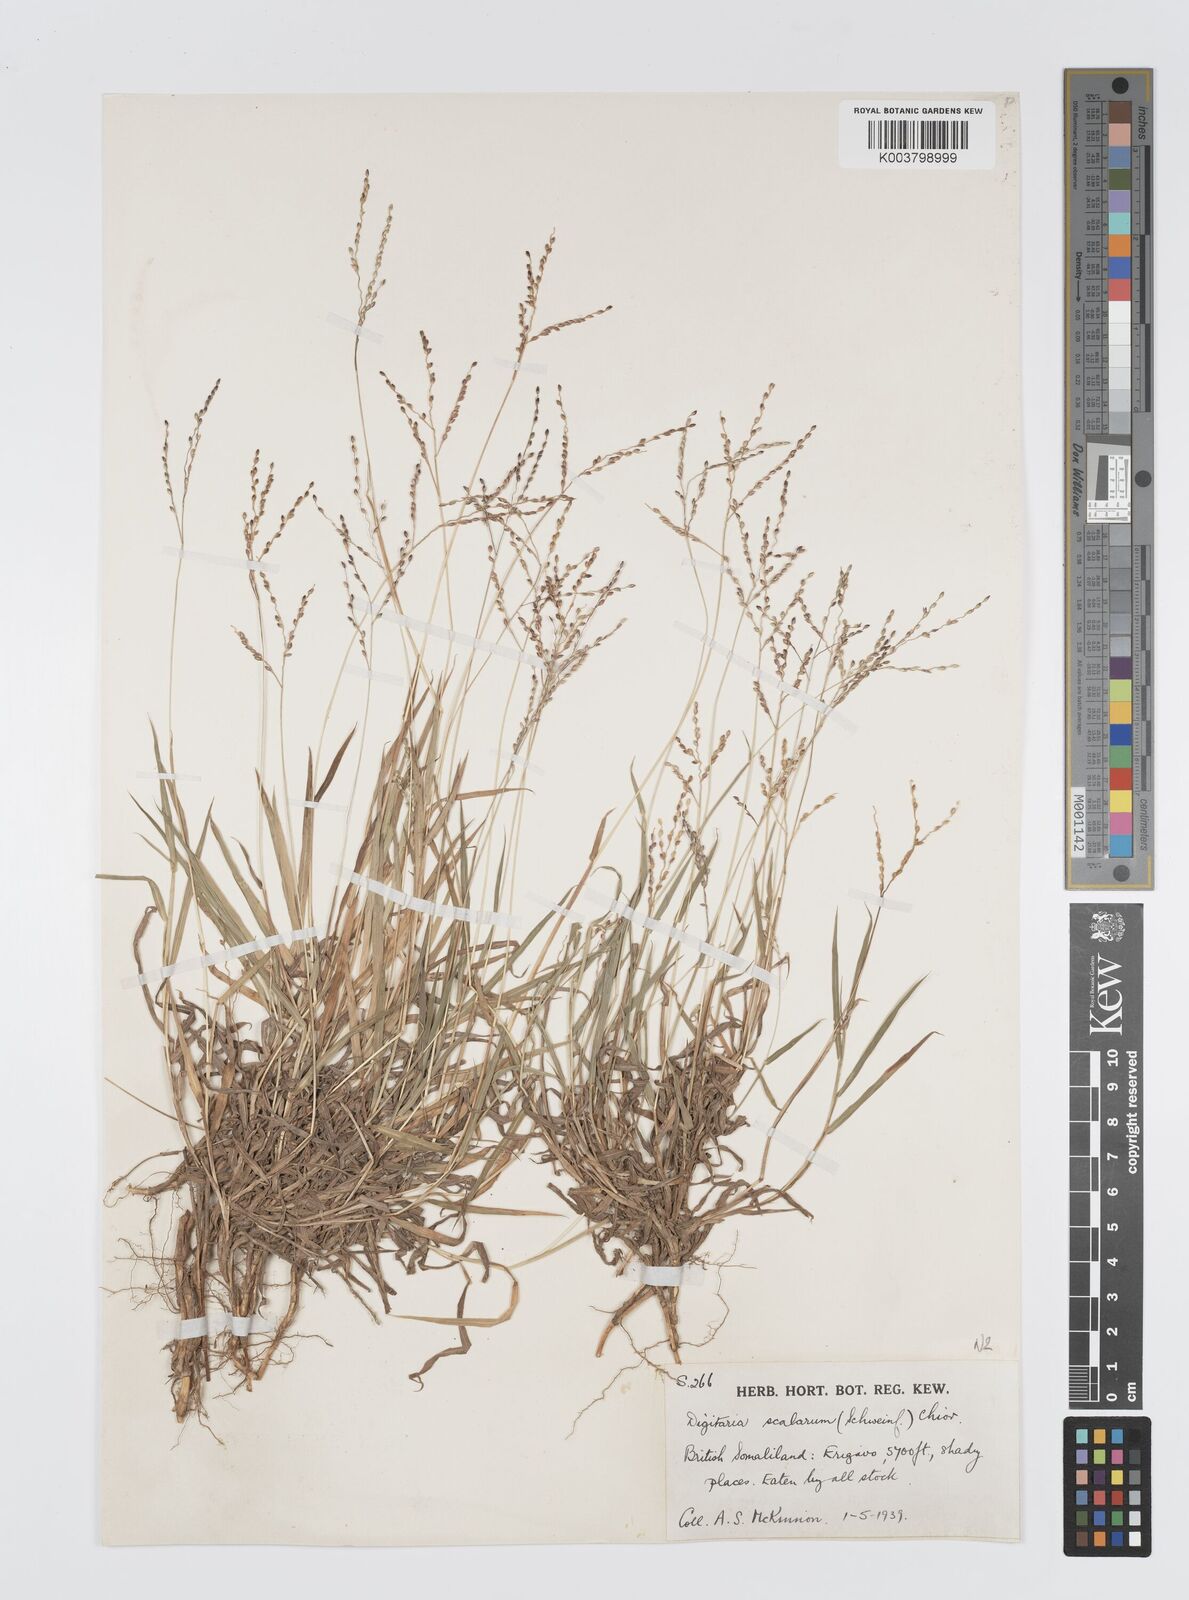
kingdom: Plantae
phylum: Tracheophyta
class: Liliopsida
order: Poales
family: Poaceae
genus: Digitaria
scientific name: Digitaria abyssinica
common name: African couchgrass
